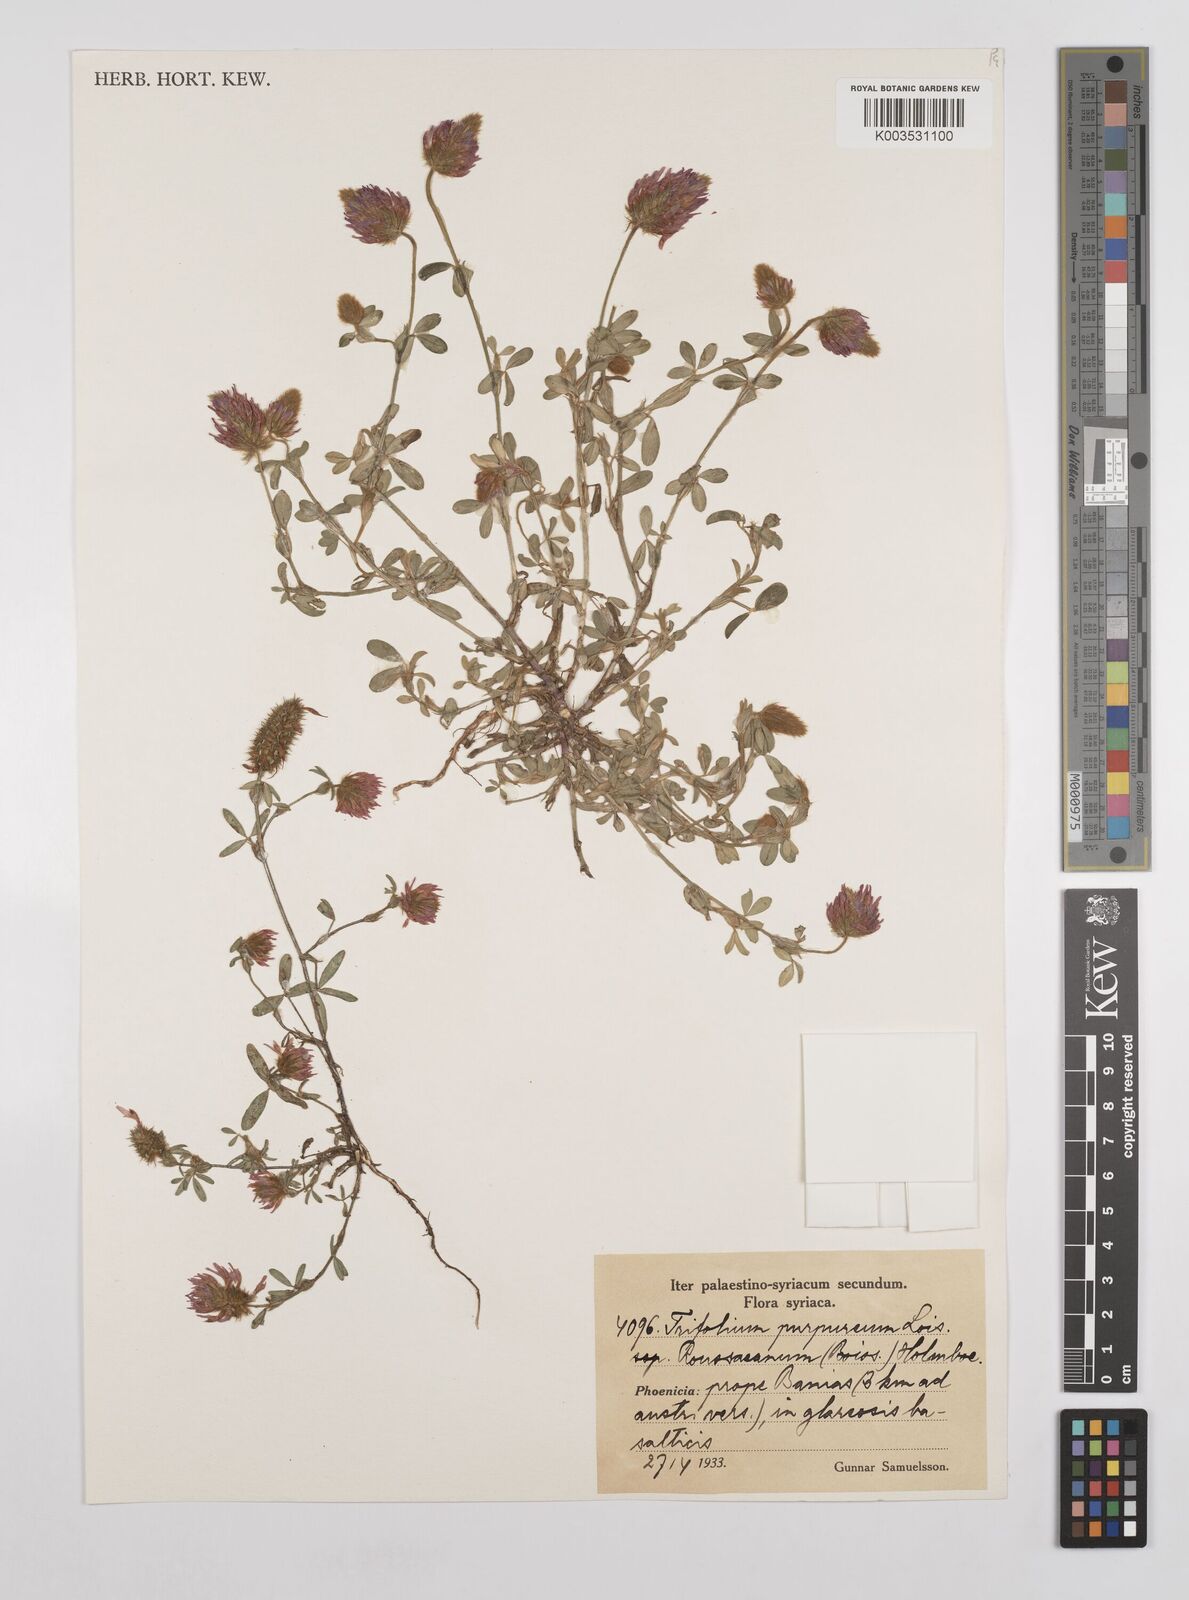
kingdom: Plantae
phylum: Tracheophyta
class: Magnoliopsida
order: Fabales
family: Fabaceae
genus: Trifolium
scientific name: Trifolium purpureum
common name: Purple clover
